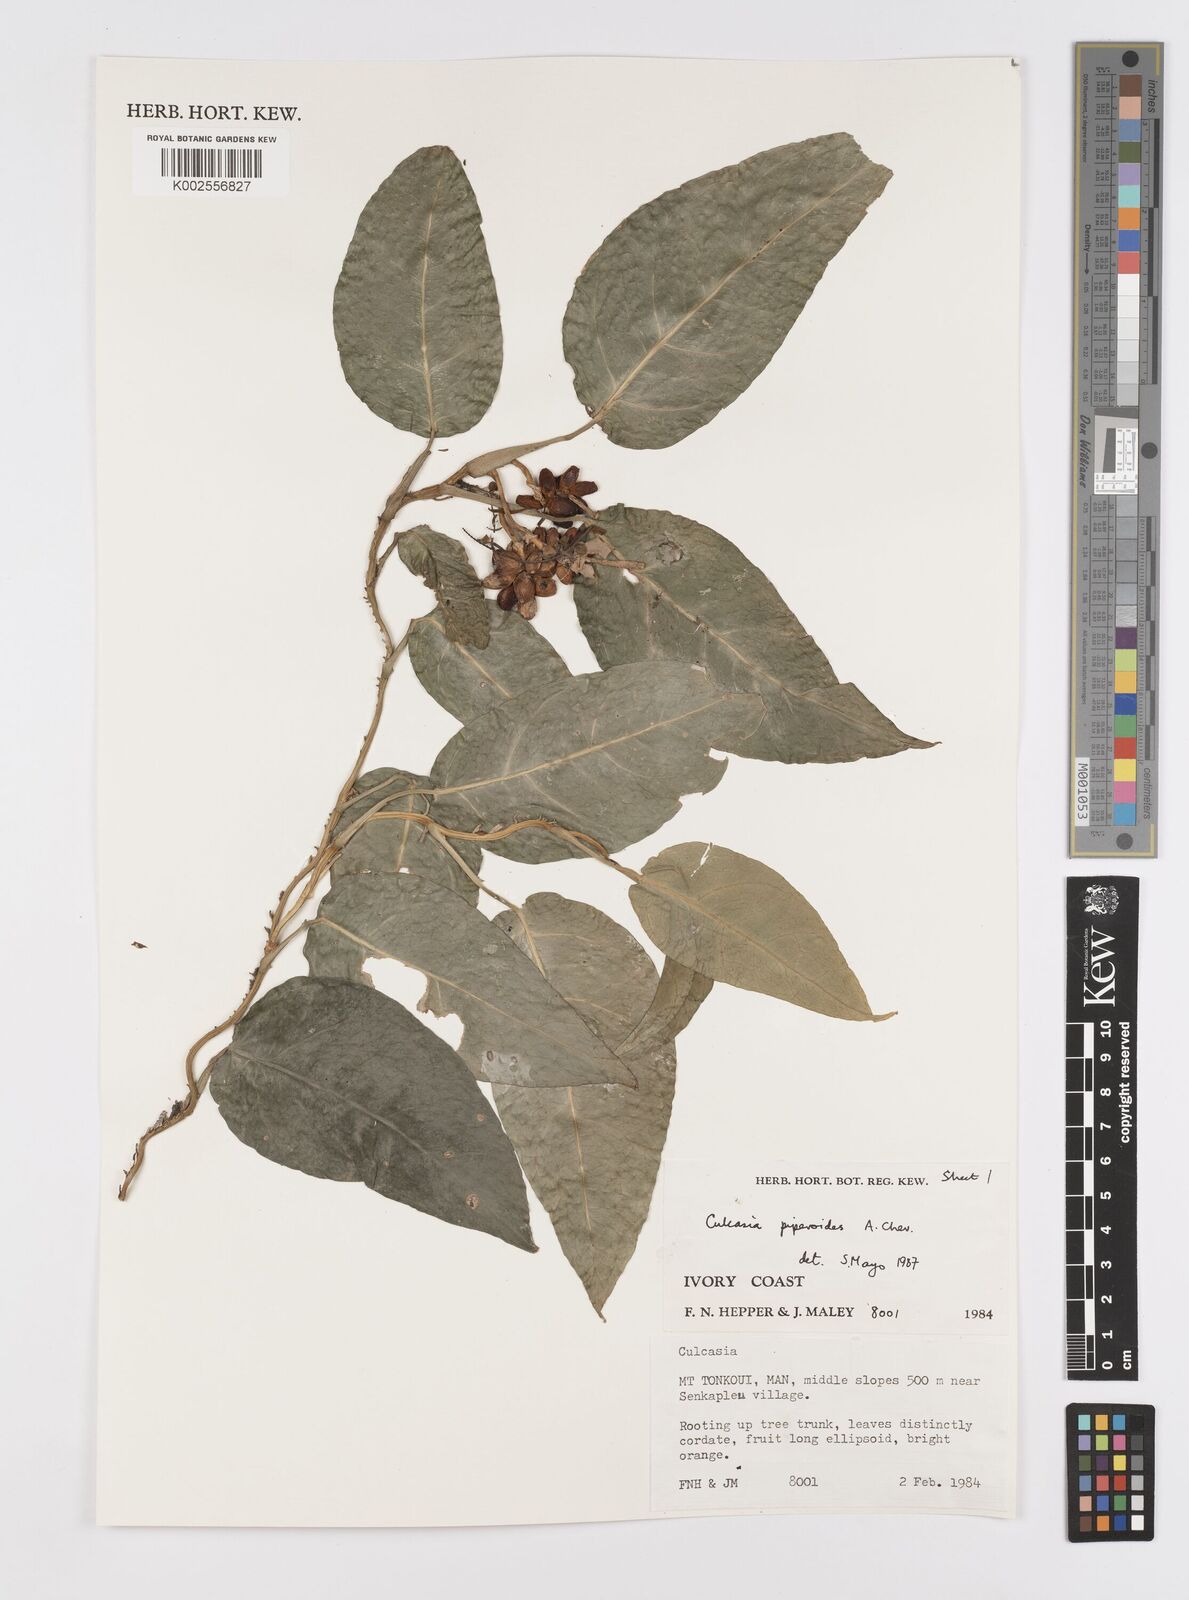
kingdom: Plantae
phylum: Tracheophyta
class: Liliopsida
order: Alismatales
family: Araceae
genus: Culcasia
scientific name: Culcasia parviflora
